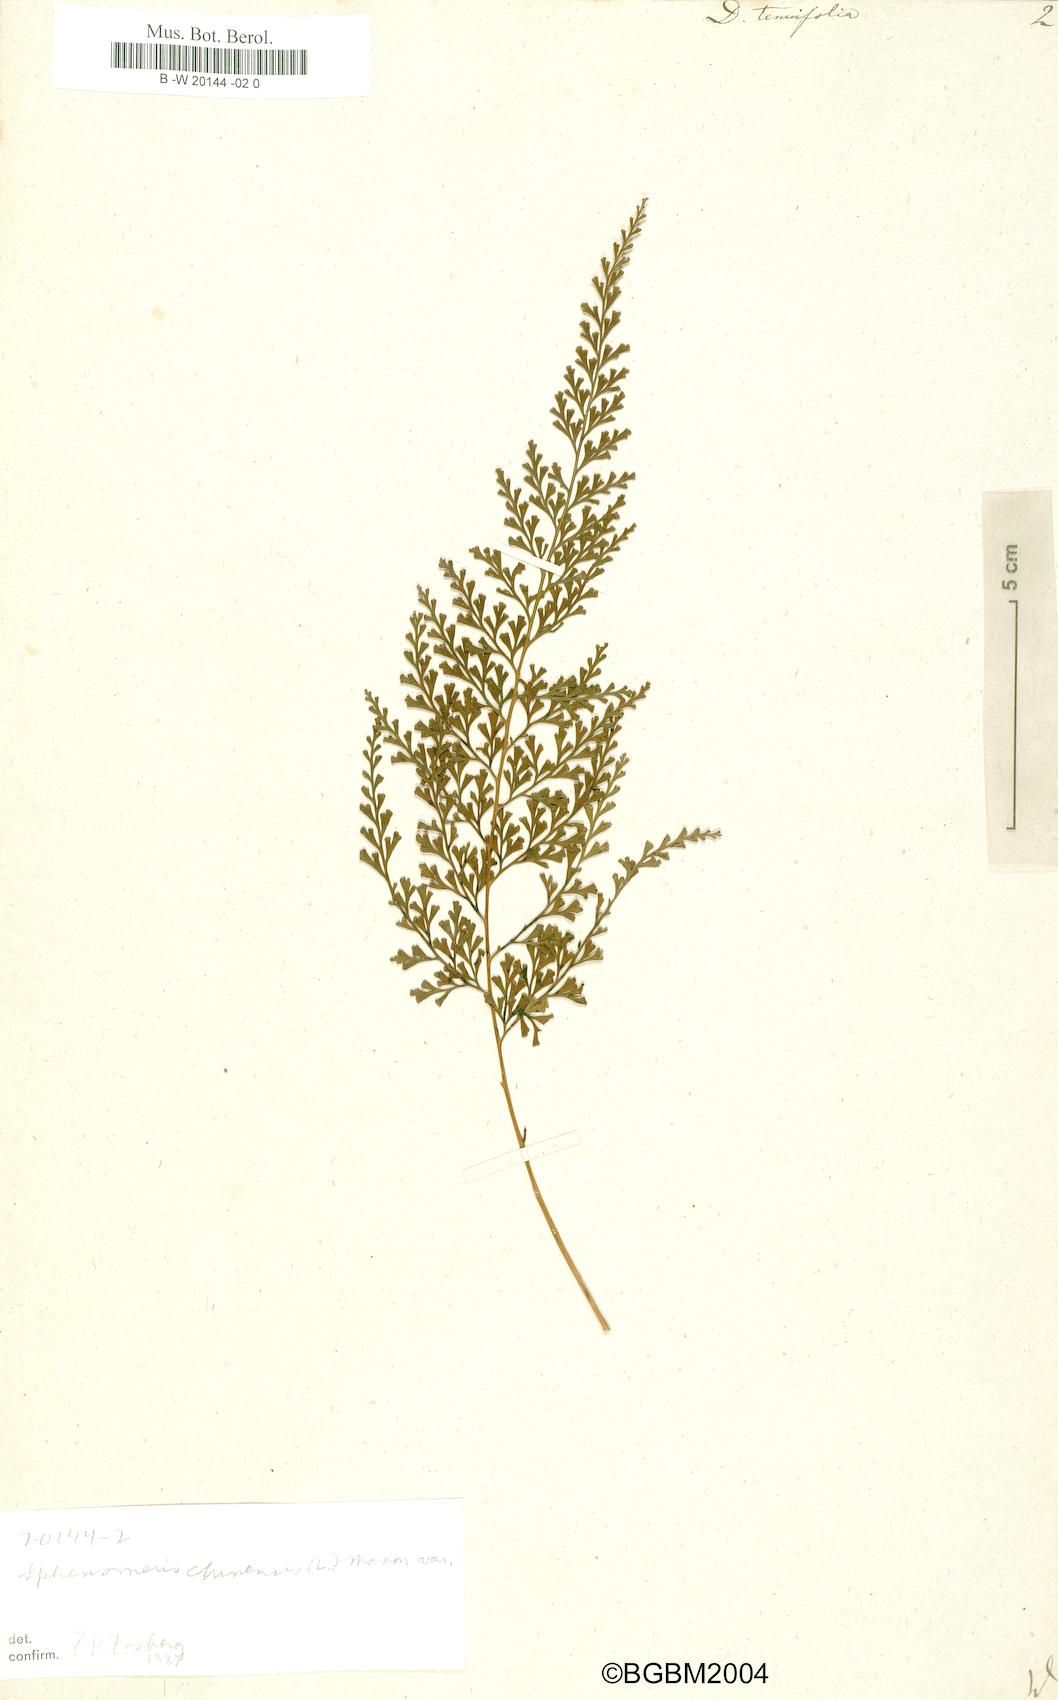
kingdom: Plantae
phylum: Tracheophyta
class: Polypodiopsida
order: Polypodiales
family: Lindsaeaceae
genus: Odontosoria
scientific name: Odontosoria chinensis
